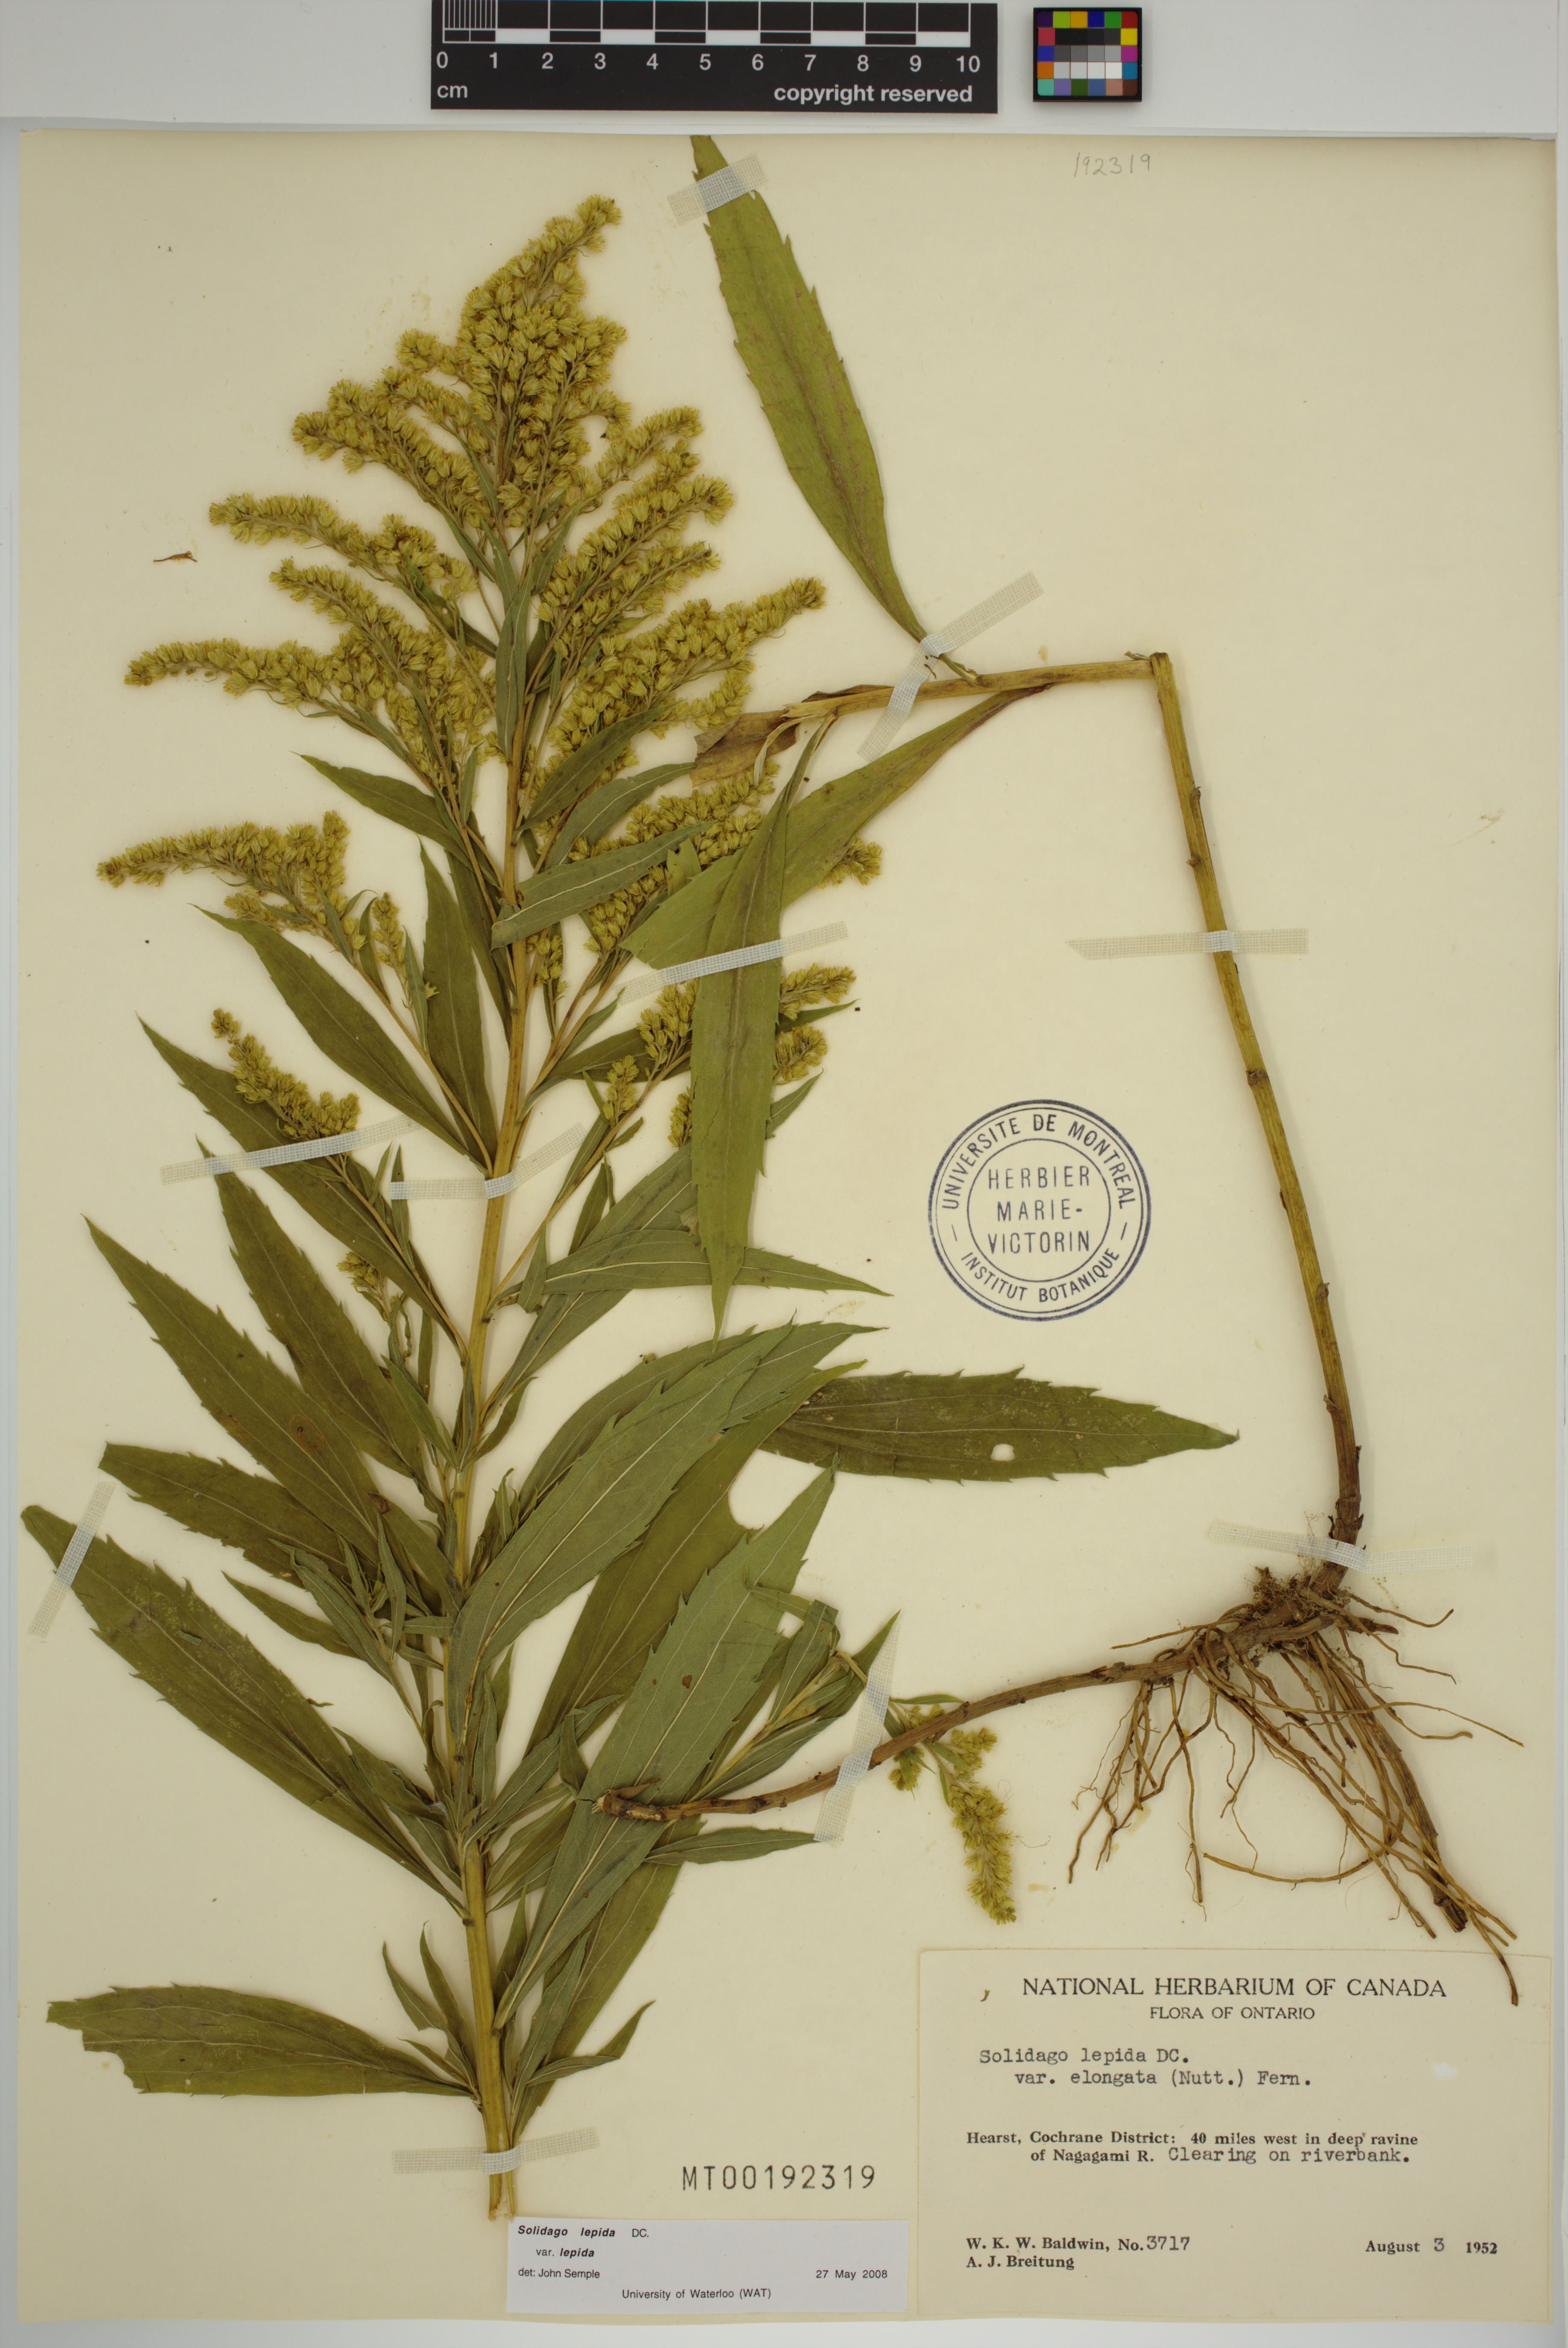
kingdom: Plantae
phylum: Tracheophyta
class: Magnoliopsida
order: Asterales
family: Asteraceae
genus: Solidago
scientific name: Solidago lepida
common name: Western canada goldenrod
